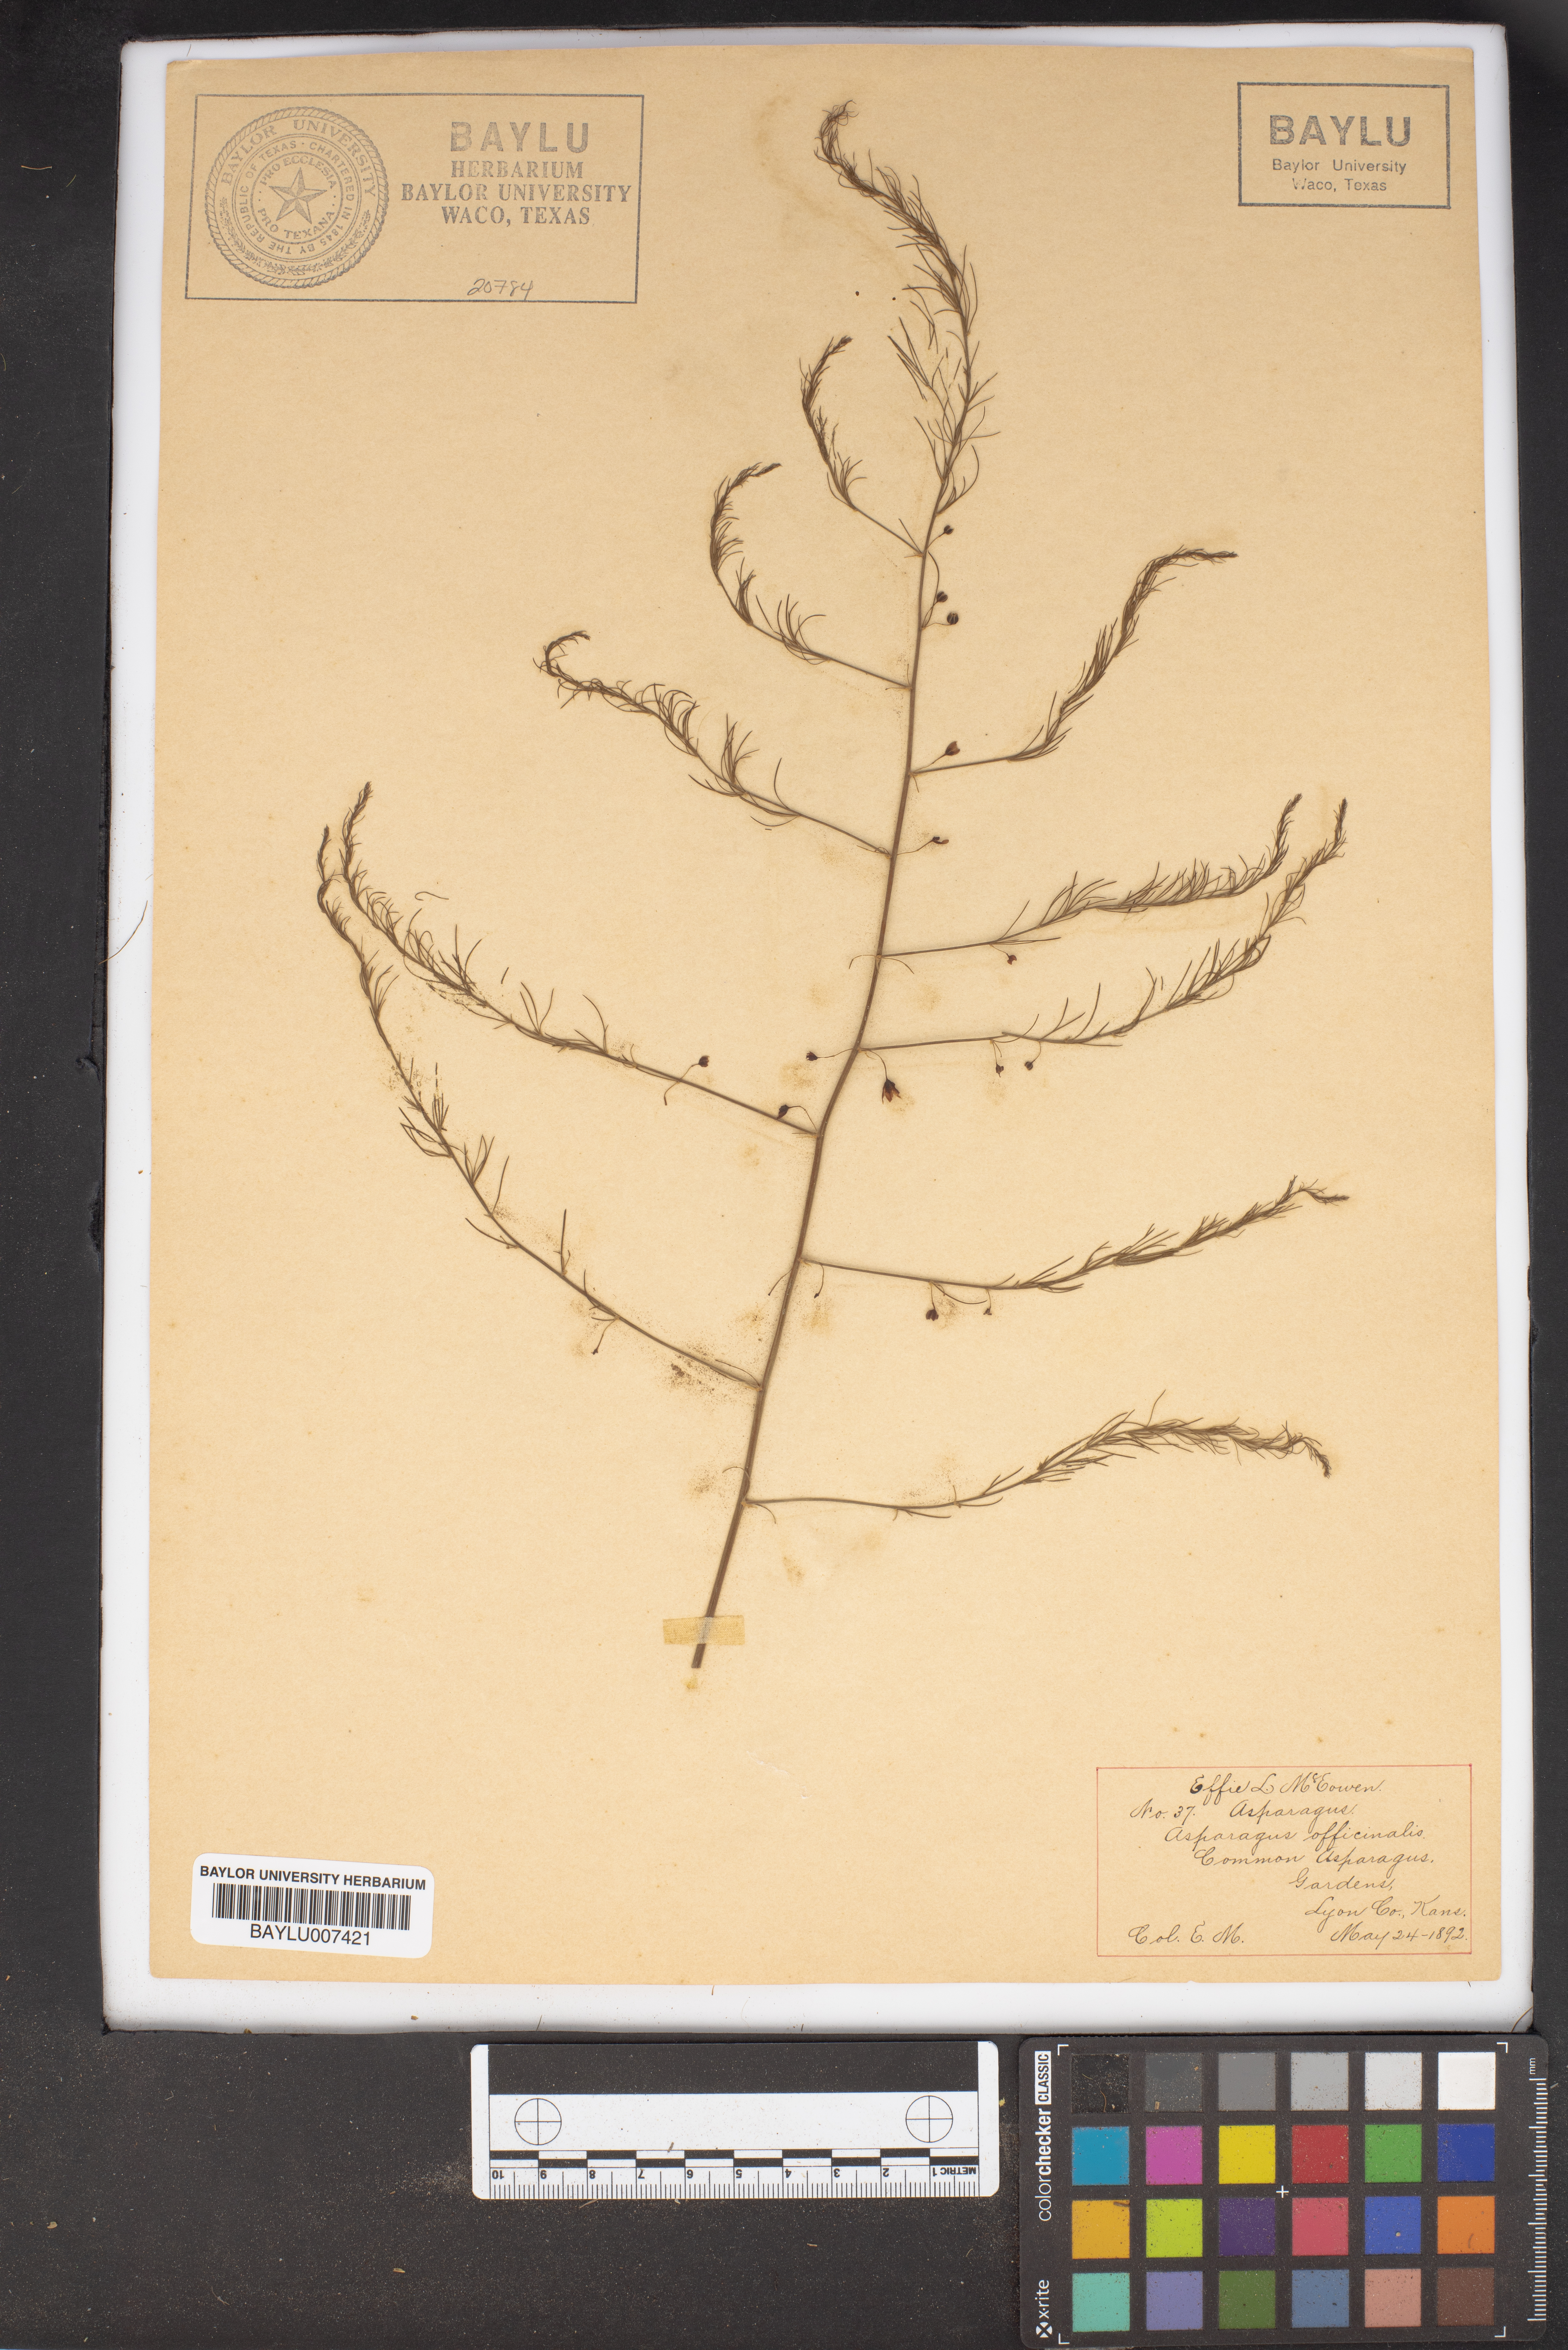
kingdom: Plantae
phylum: Tracheophyta
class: Liliopsida
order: Asparagales
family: Asparagaceae
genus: Asparagus
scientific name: Asparagus officinalis
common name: Garden asparagus
